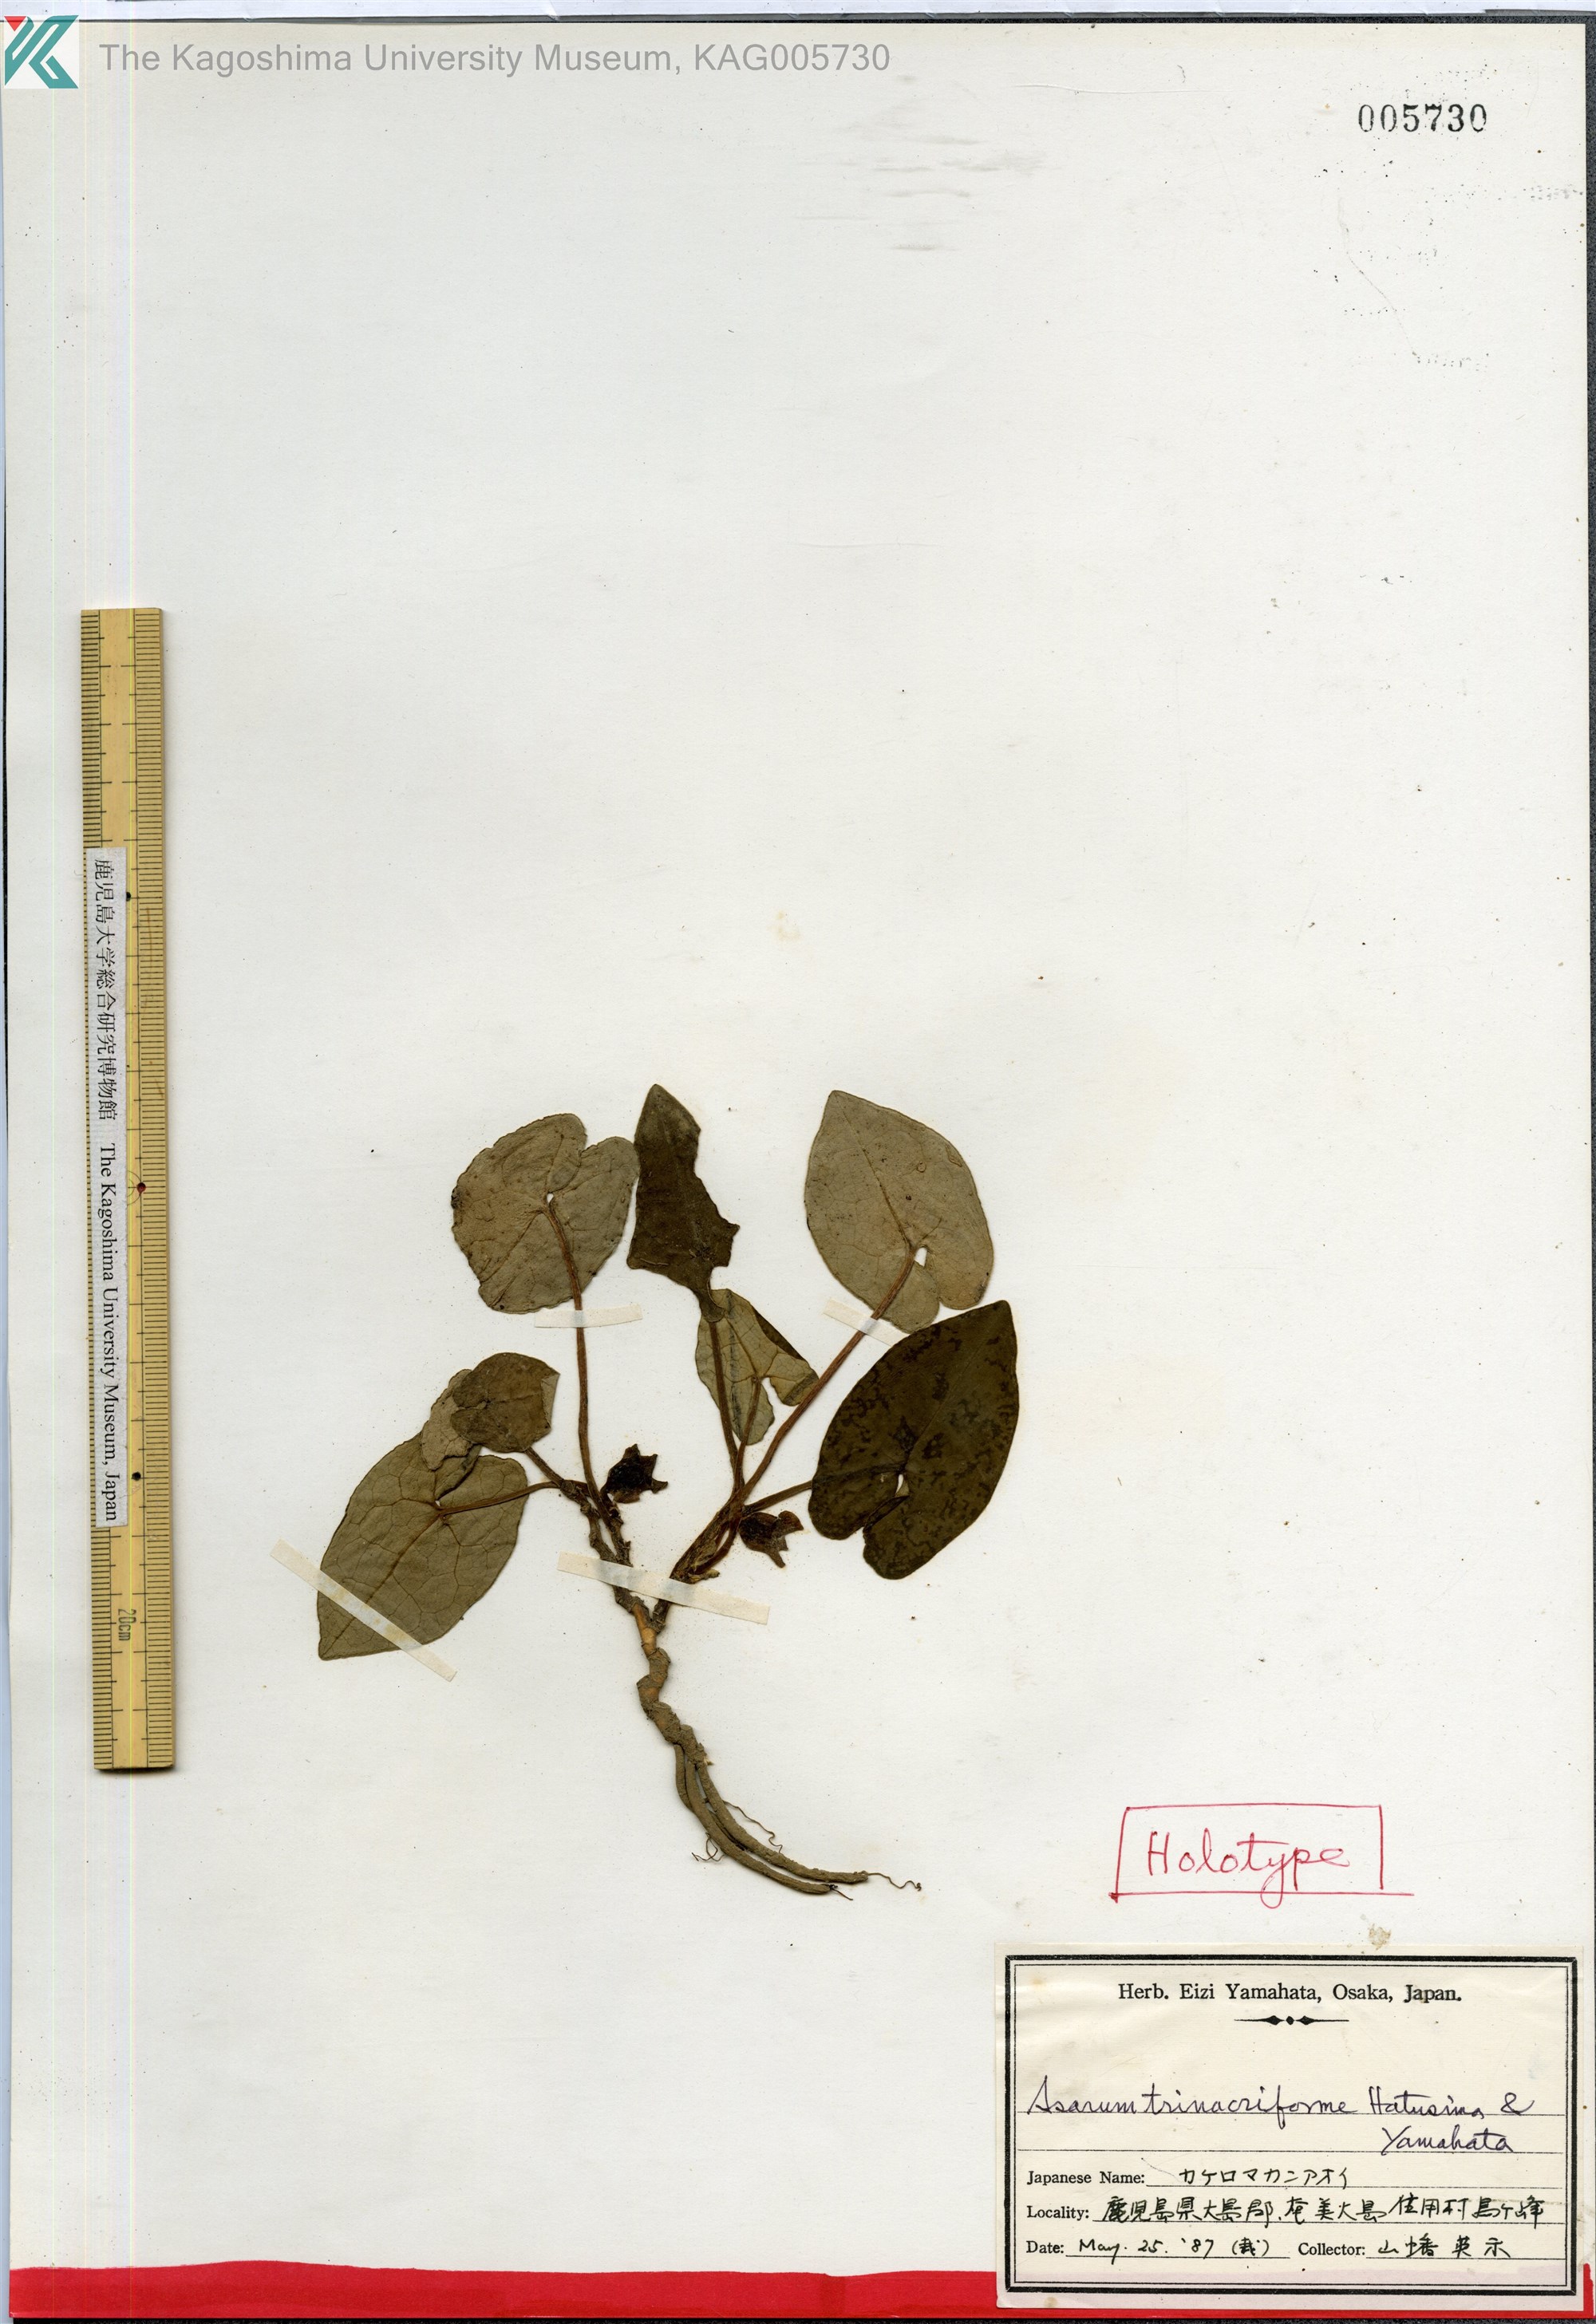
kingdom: Plantae
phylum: Tracheophyta
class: Magnoliopsida
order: Piperales
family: Aristolochiaceae
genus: Asarum
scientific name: Asarum trinacriforme
